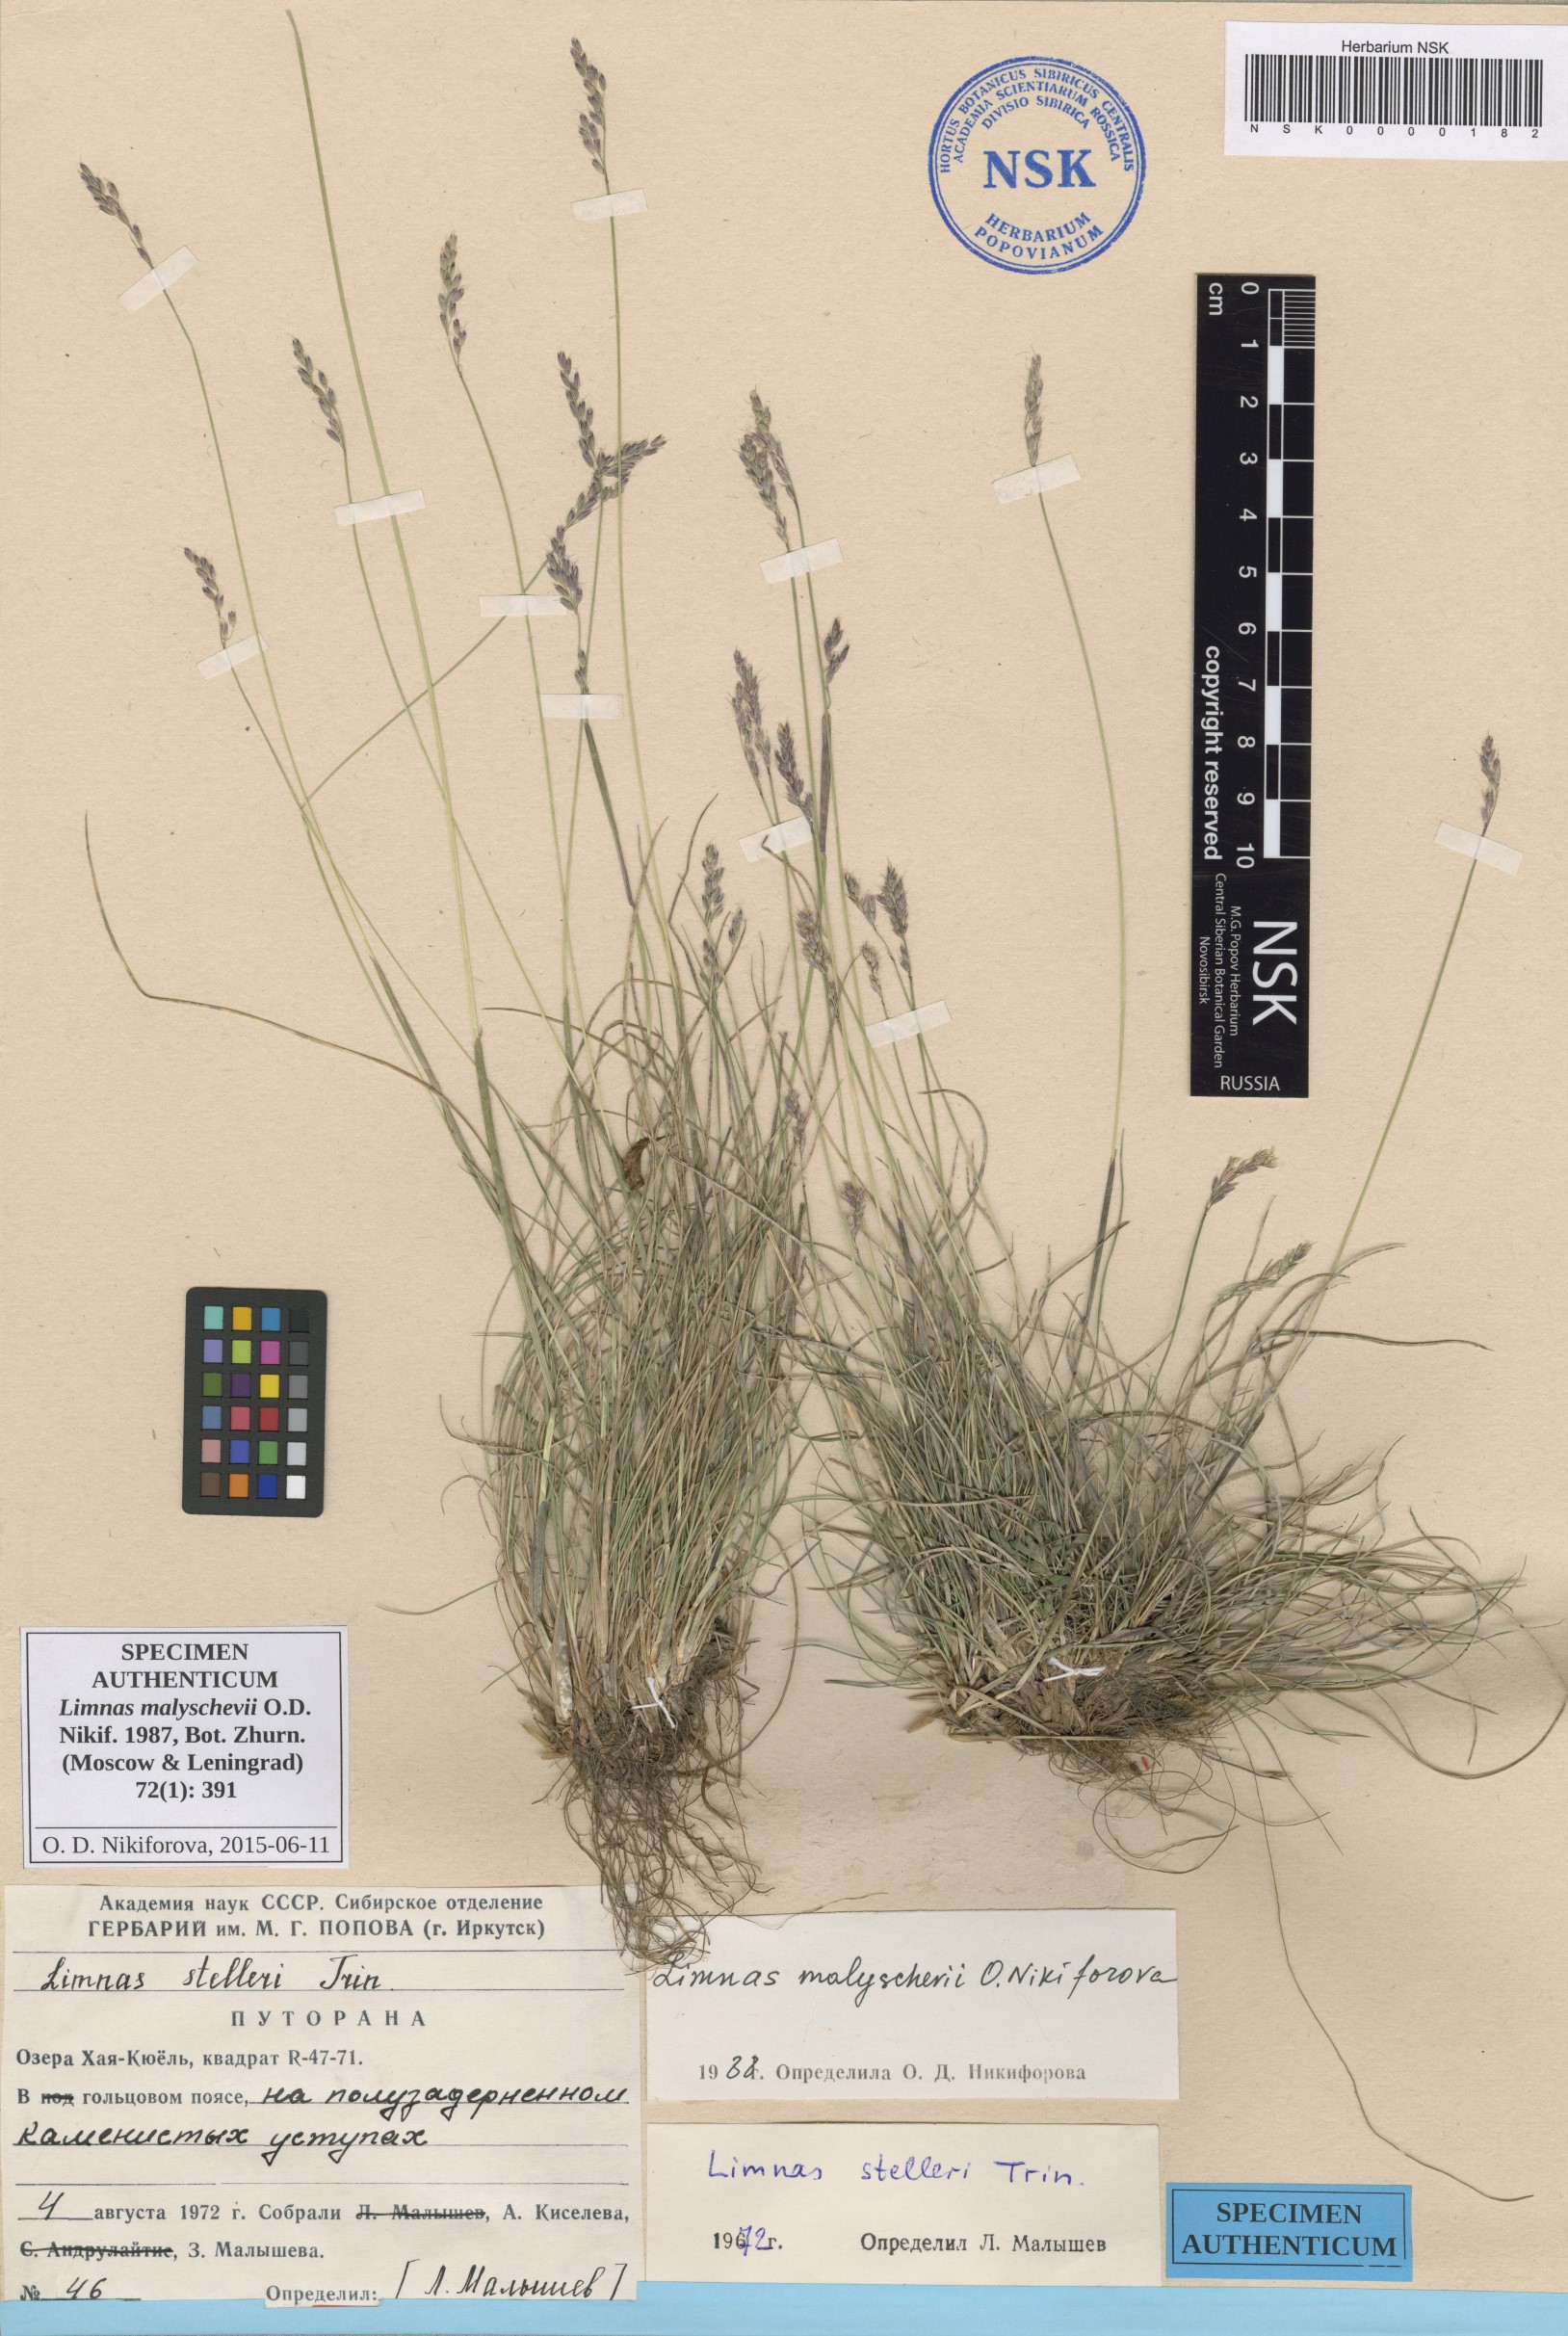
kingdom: Plantae
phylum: Tracheophyta
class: Liliopsida
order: Poales
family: Poaceae
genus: Limnas
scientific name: Limnas malyschevii
